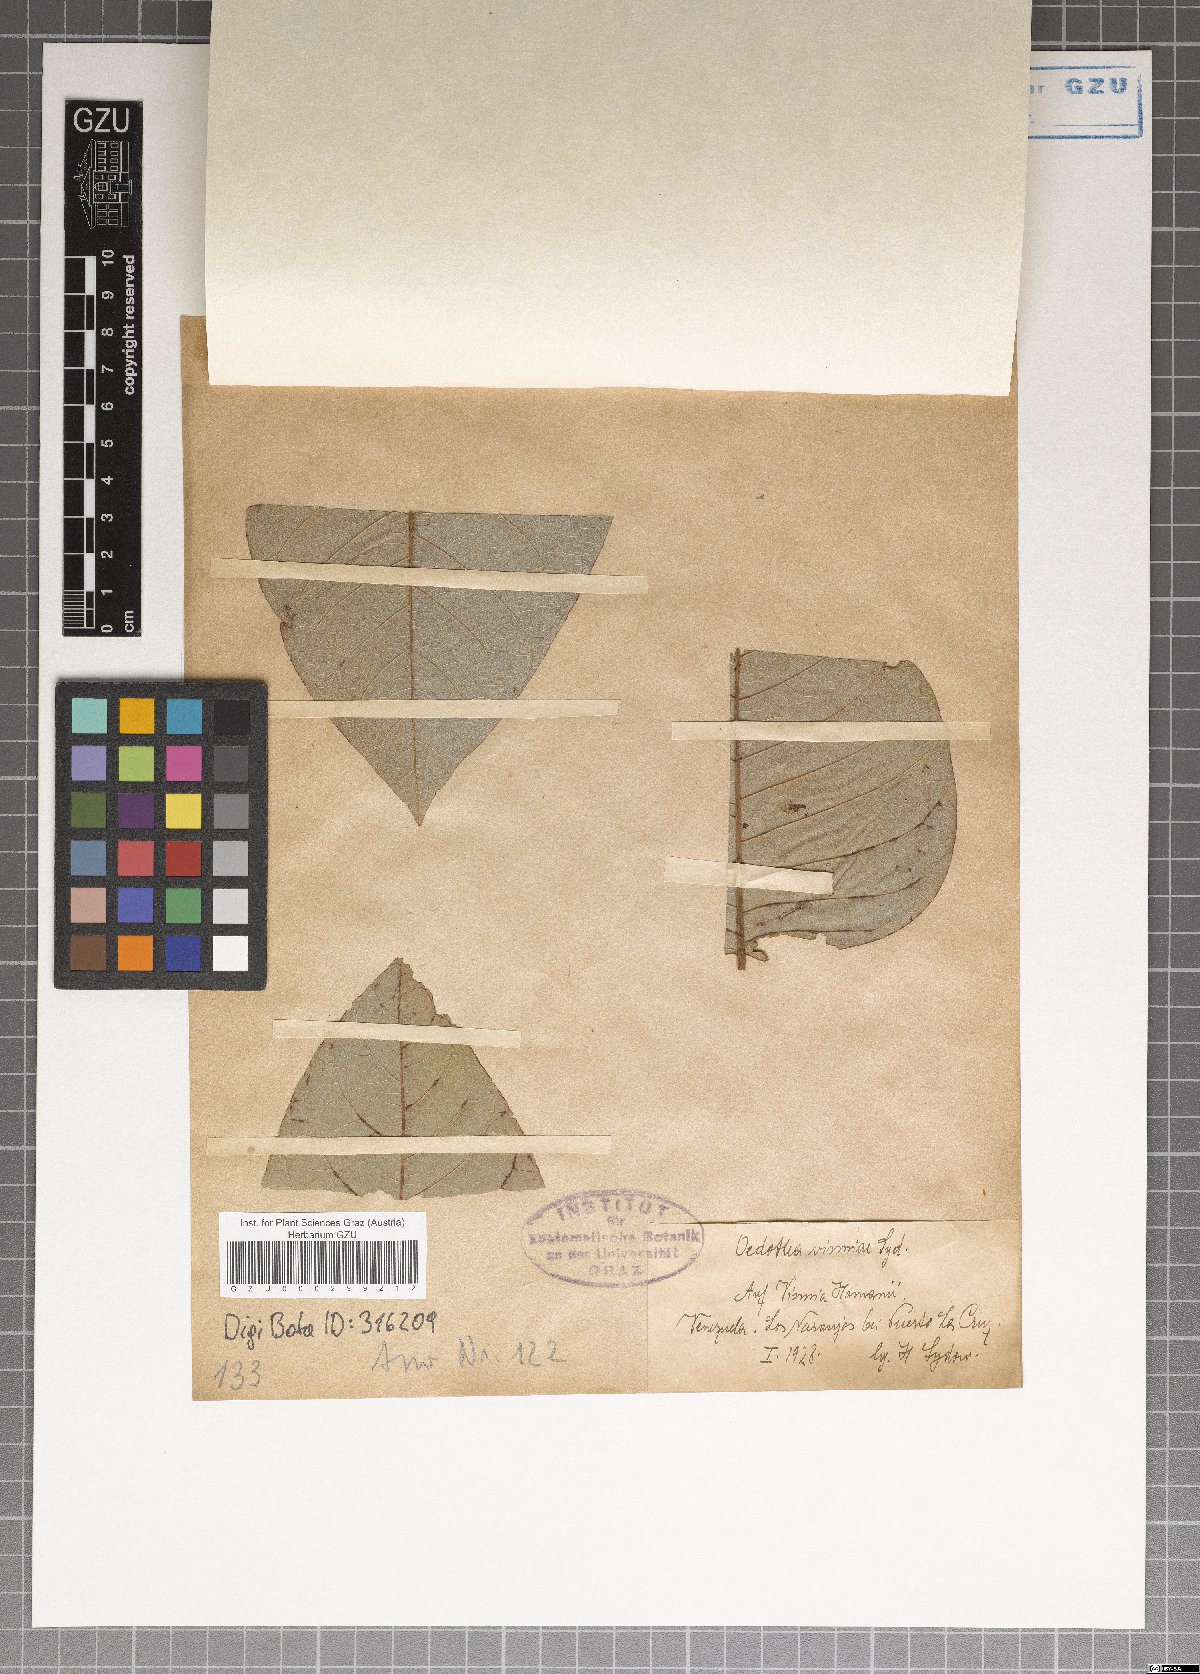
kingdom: Fungi
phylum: Ascomycota
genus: Oedothea
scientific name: Oedothea vismiae
